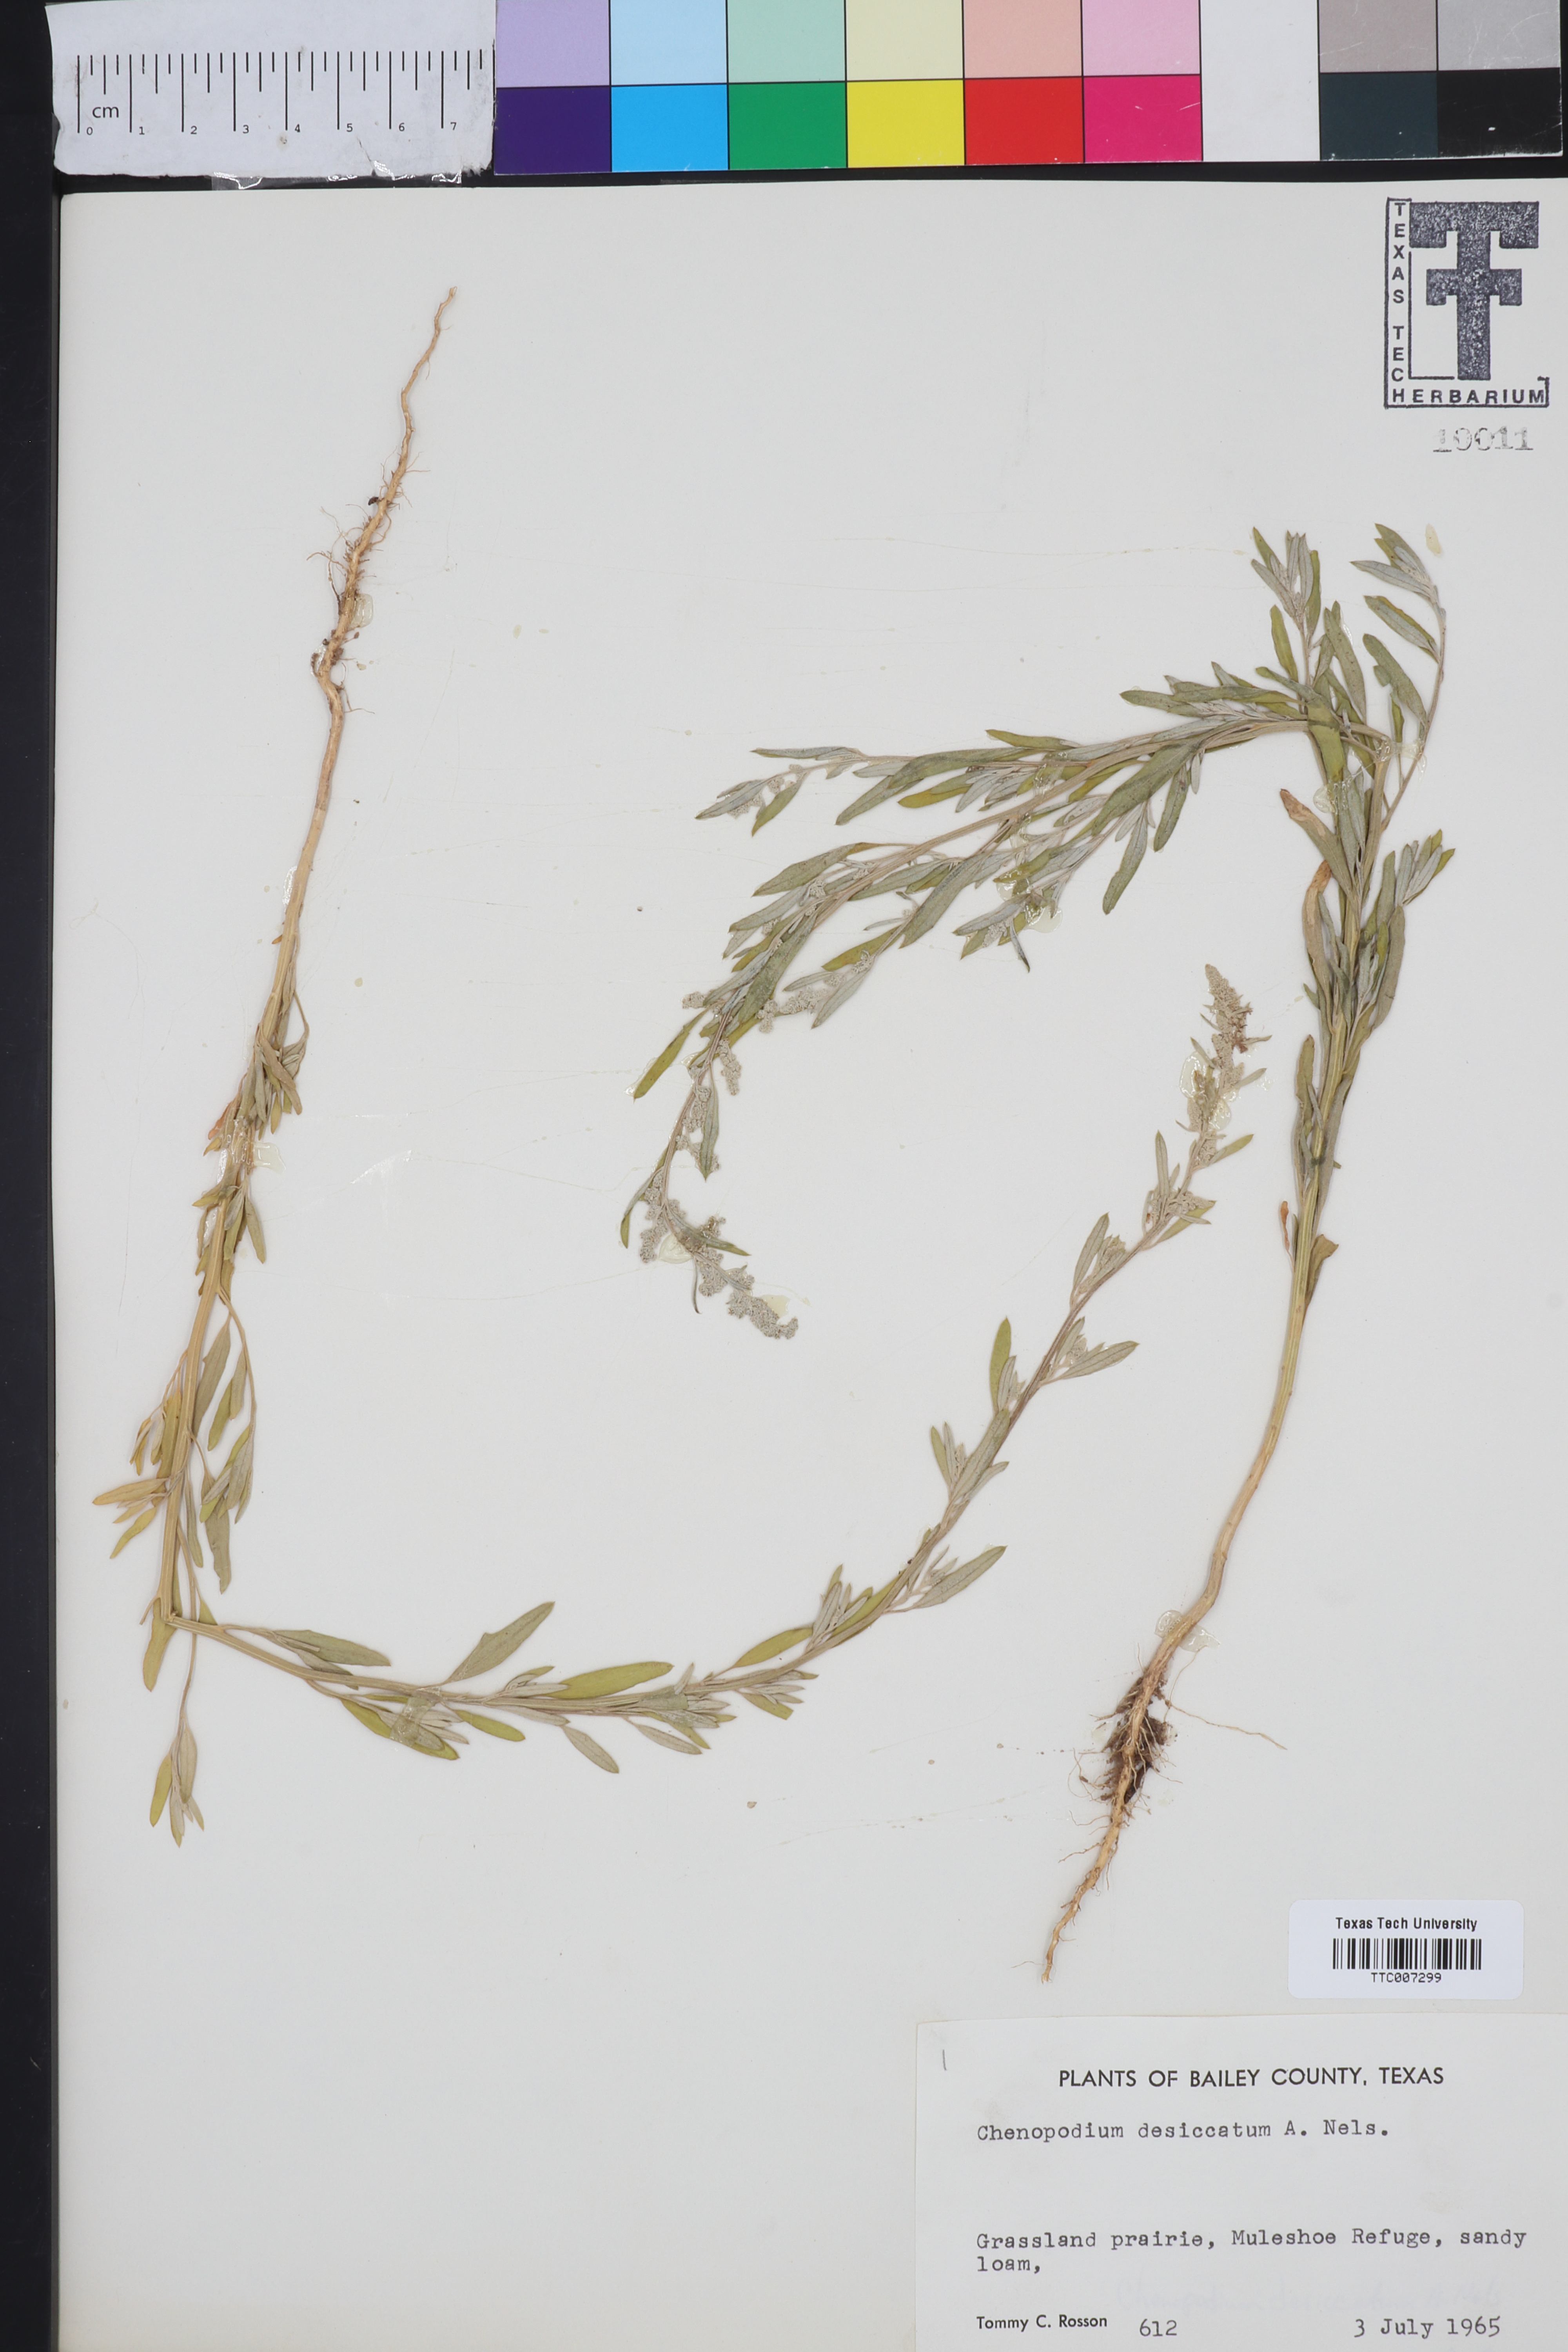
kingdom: Plantae
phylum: Tracheophyta
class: Magnoliopsida
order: Caryophyllales
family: Amaranthaceae
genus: Chenopodium
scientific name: Chenopodium desiccatum
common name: Slimleaf goosefoot
